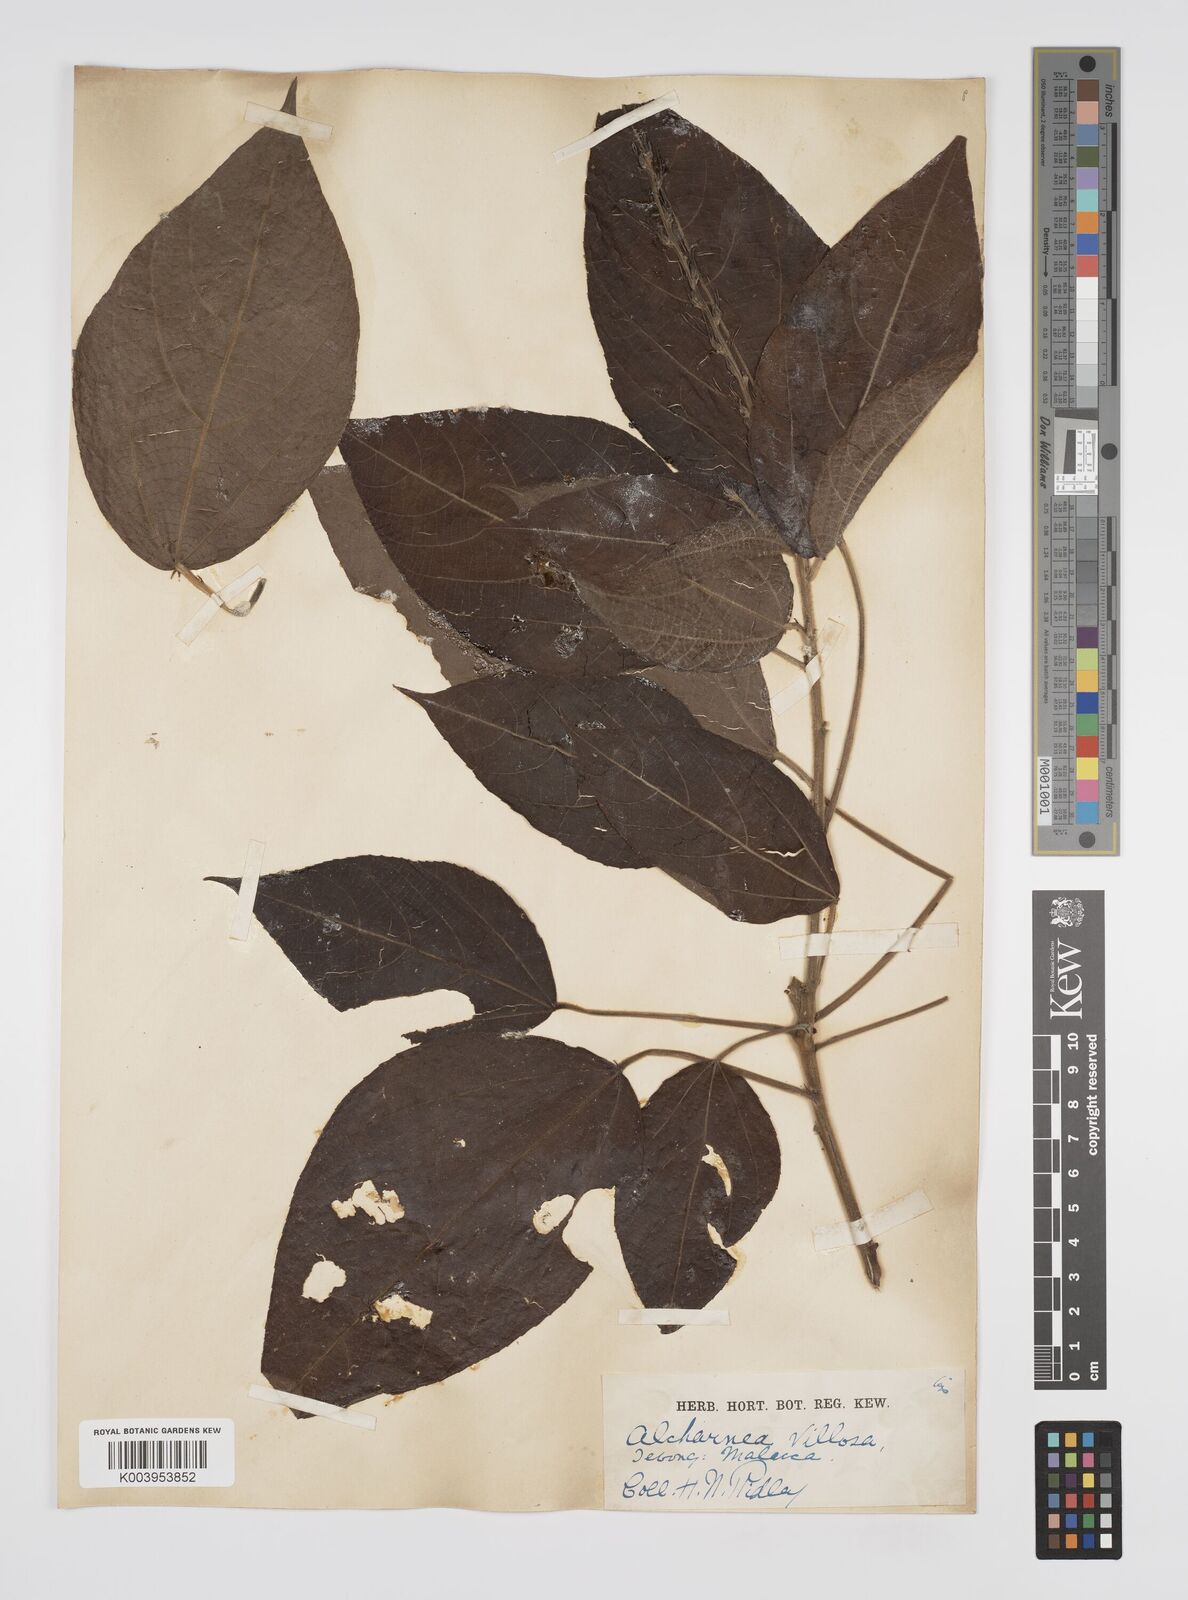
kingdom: Plantae
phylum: Tracheophyta
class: Magnoliopsida
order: Malpighiales
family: Euphorbiaceae
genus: Alchornea
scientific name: Alchornea tiliifolia
